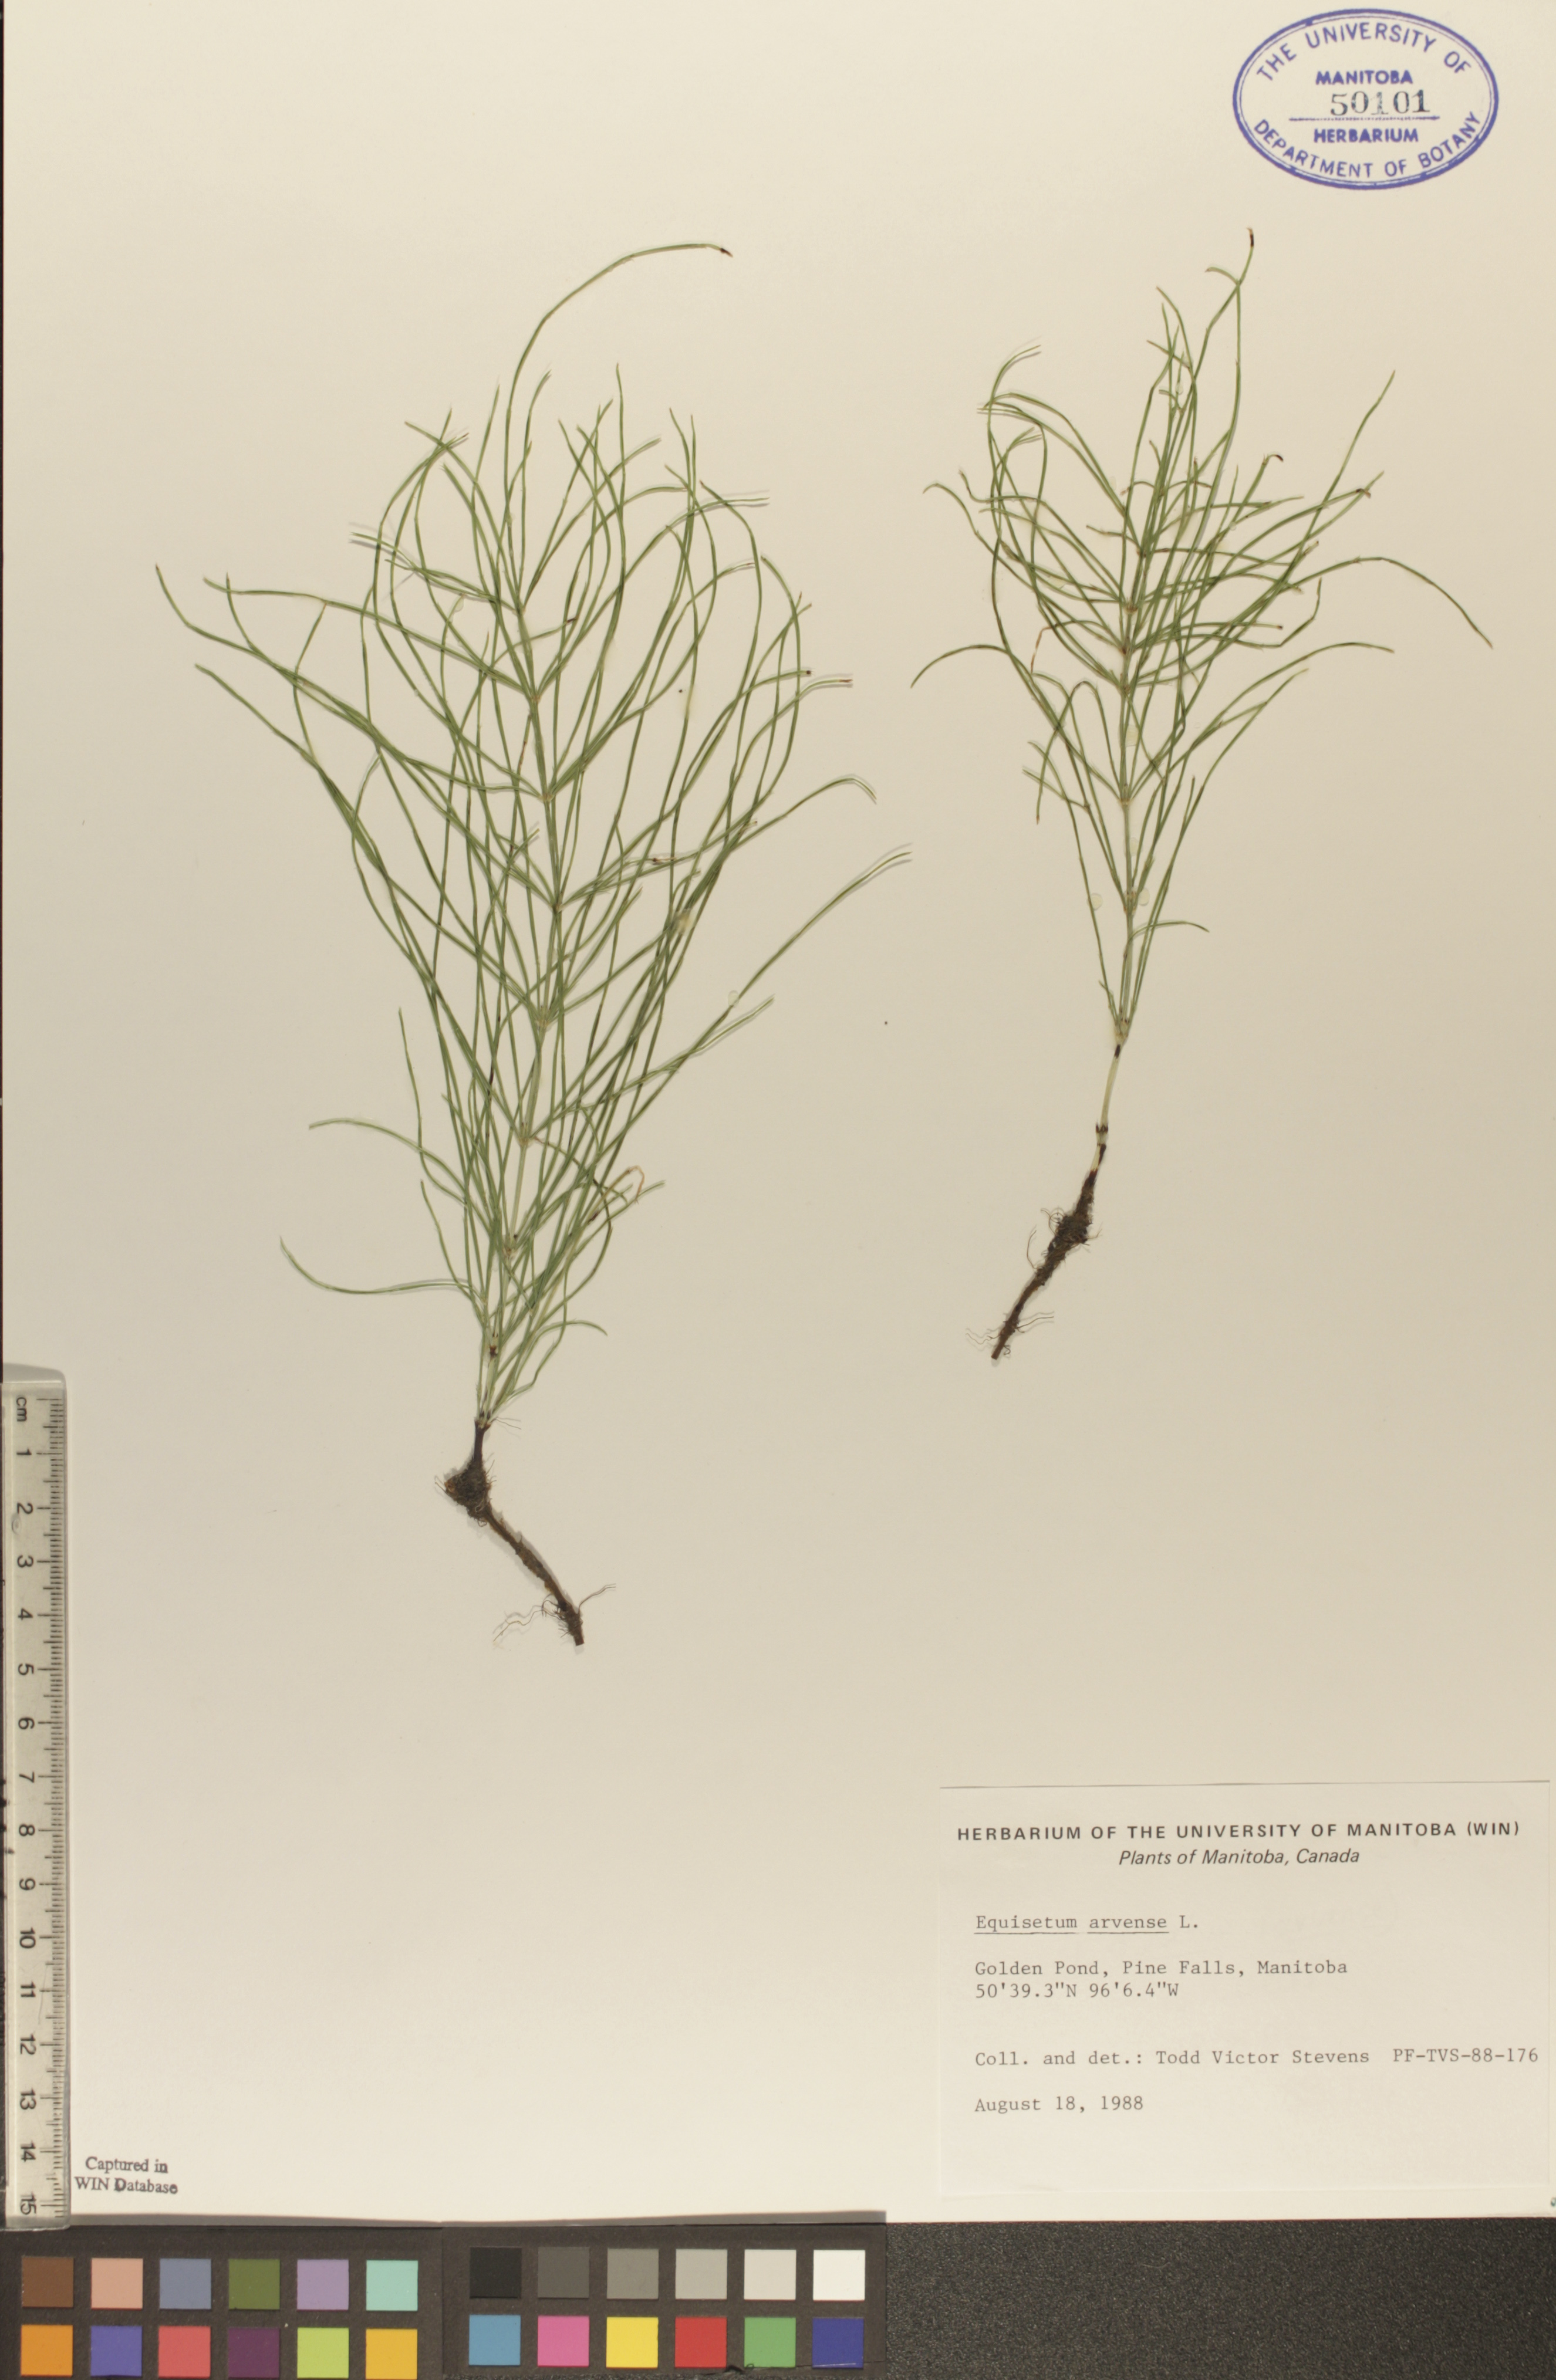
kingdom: Plantae
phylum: Tracheophyta
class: Polypodiopsida
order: Equisetales
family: Equisetaceae
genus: Equisetum
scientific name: Equisetum arvense
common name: Field horsetail
